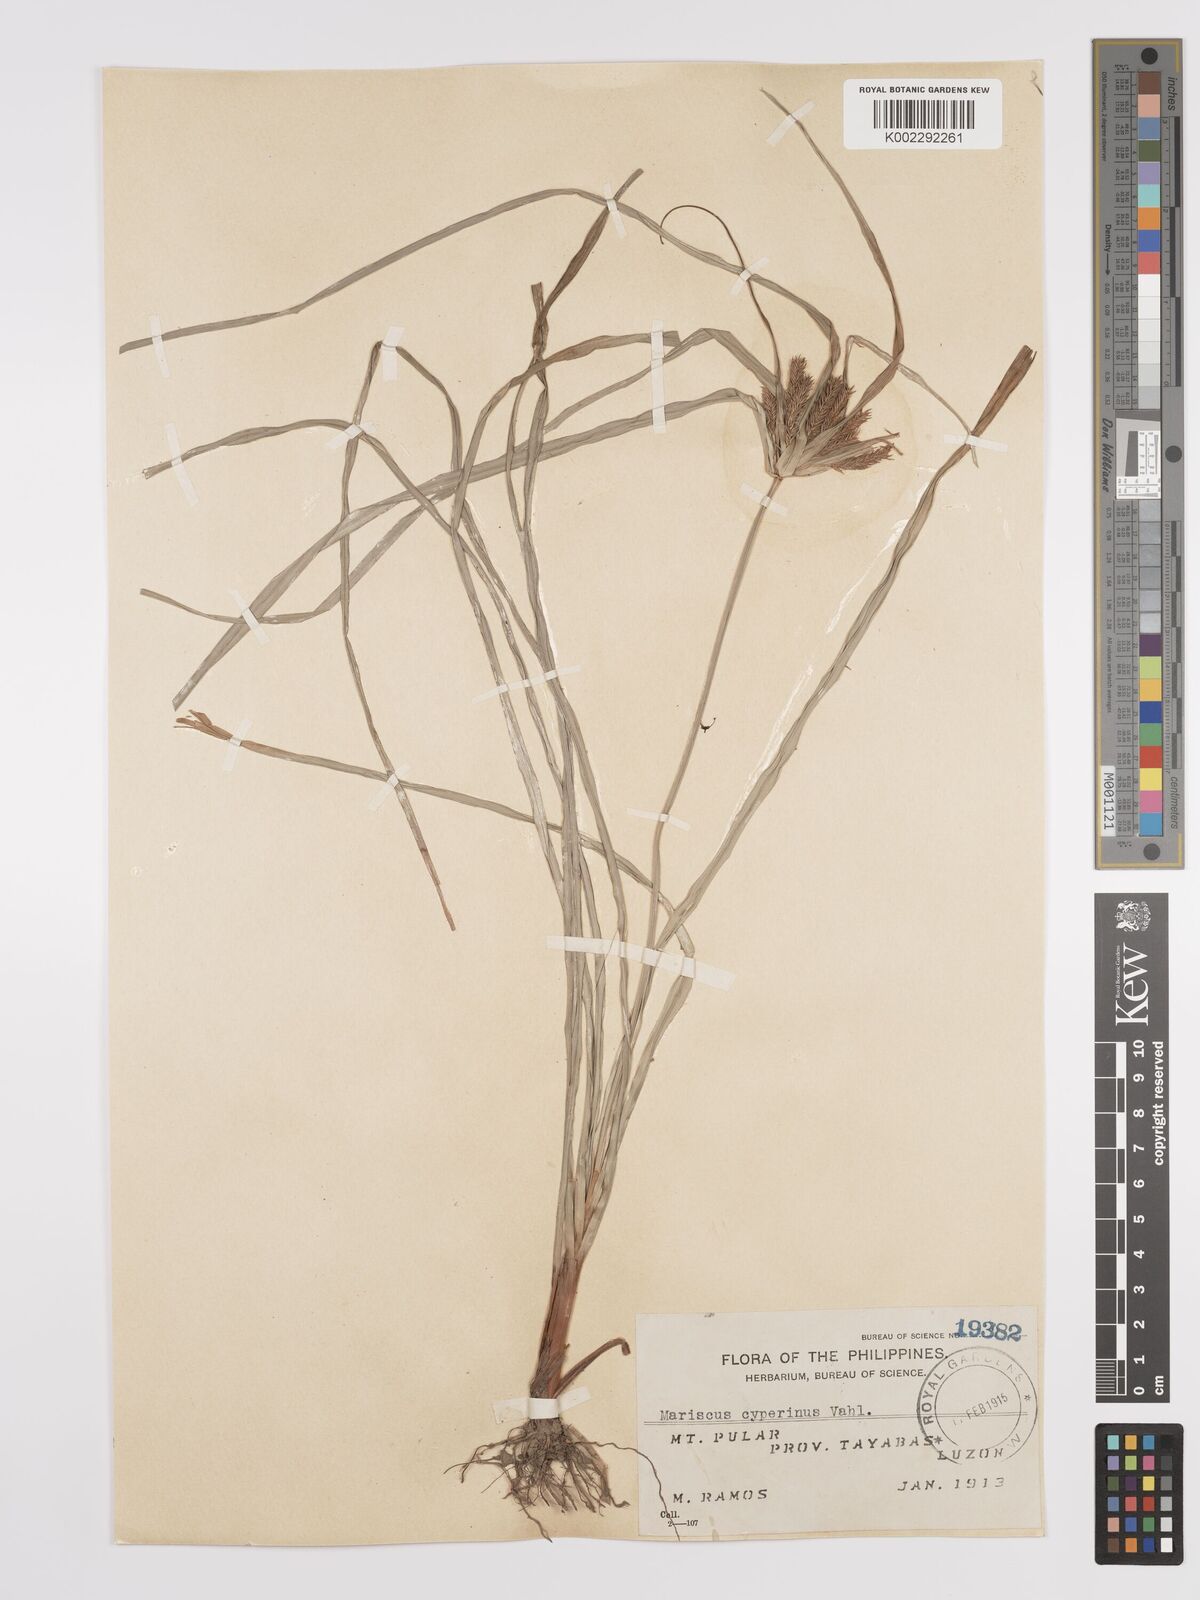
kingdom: Plantae
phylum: Tracheophyta
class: Liliopsida
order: Poales
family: Cyperaceae
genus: Cyperus
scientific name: Cyperus cyperinus
